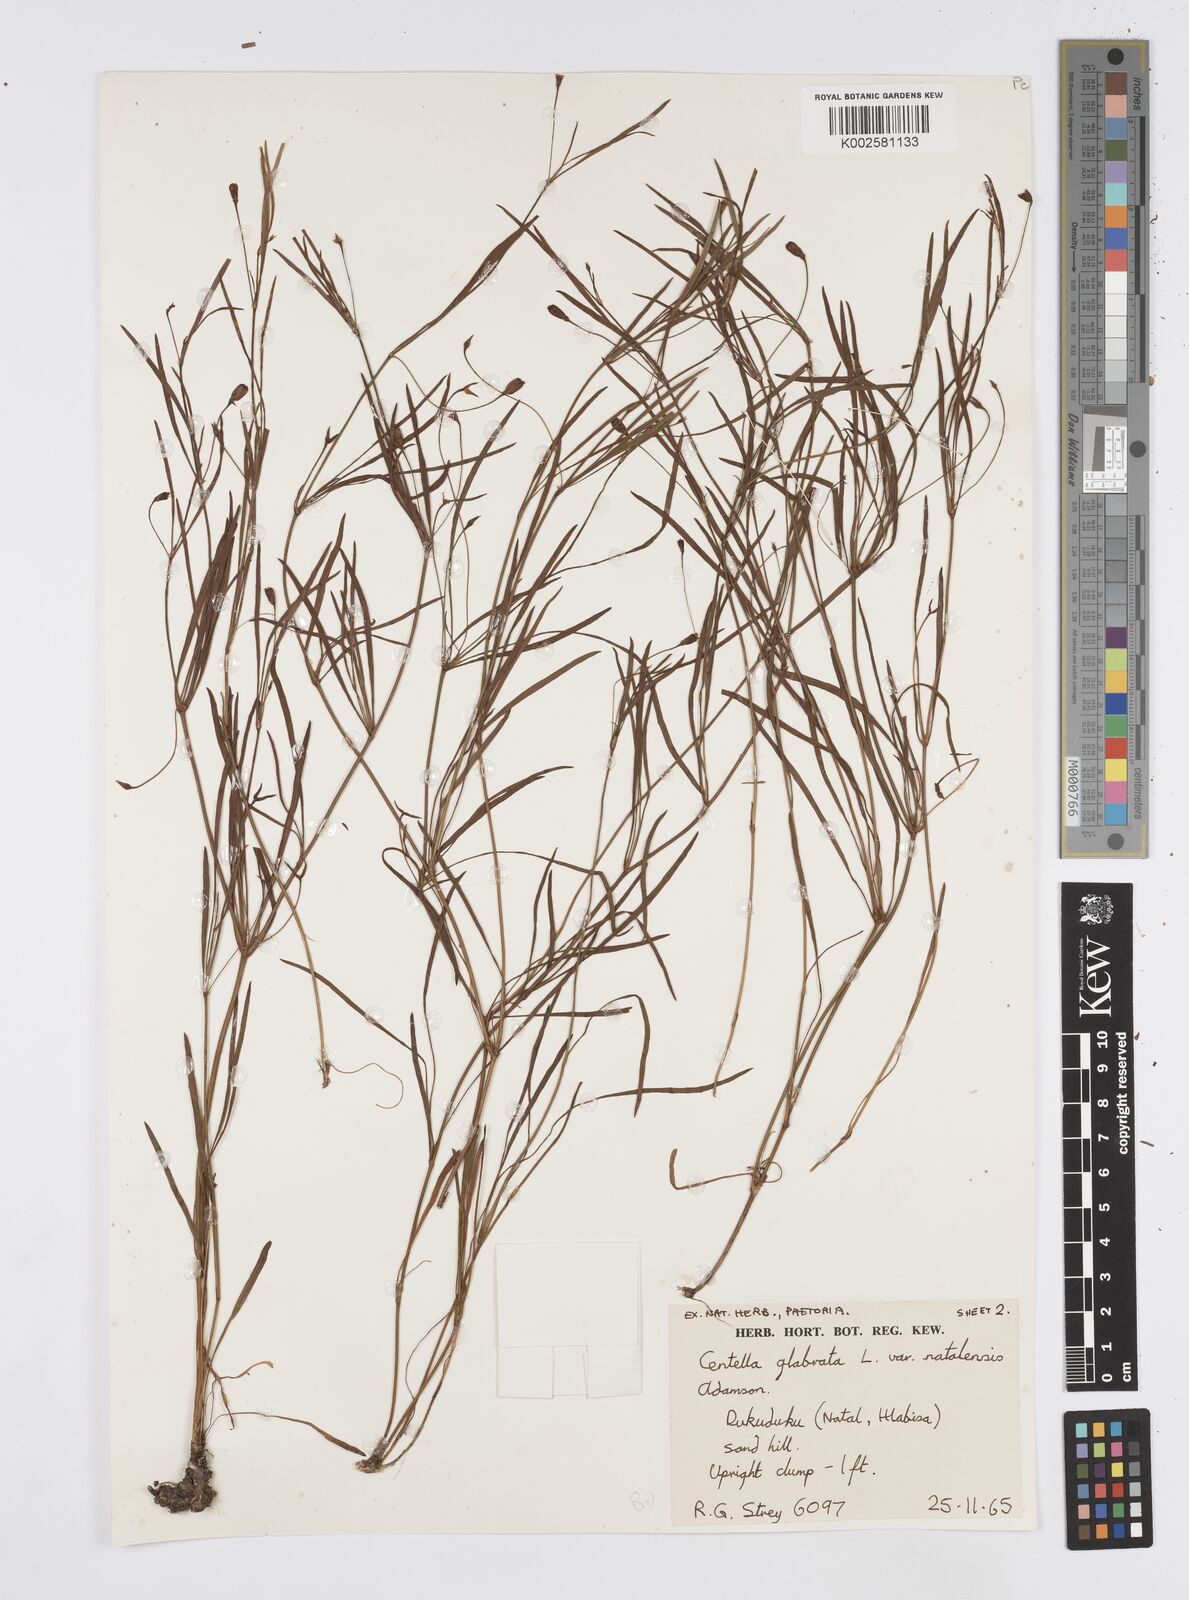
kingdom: Plantae
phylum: Tracheophyta
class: Magnoliopsida
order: Apiales
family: Apiaceae
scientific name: Apiaceae
